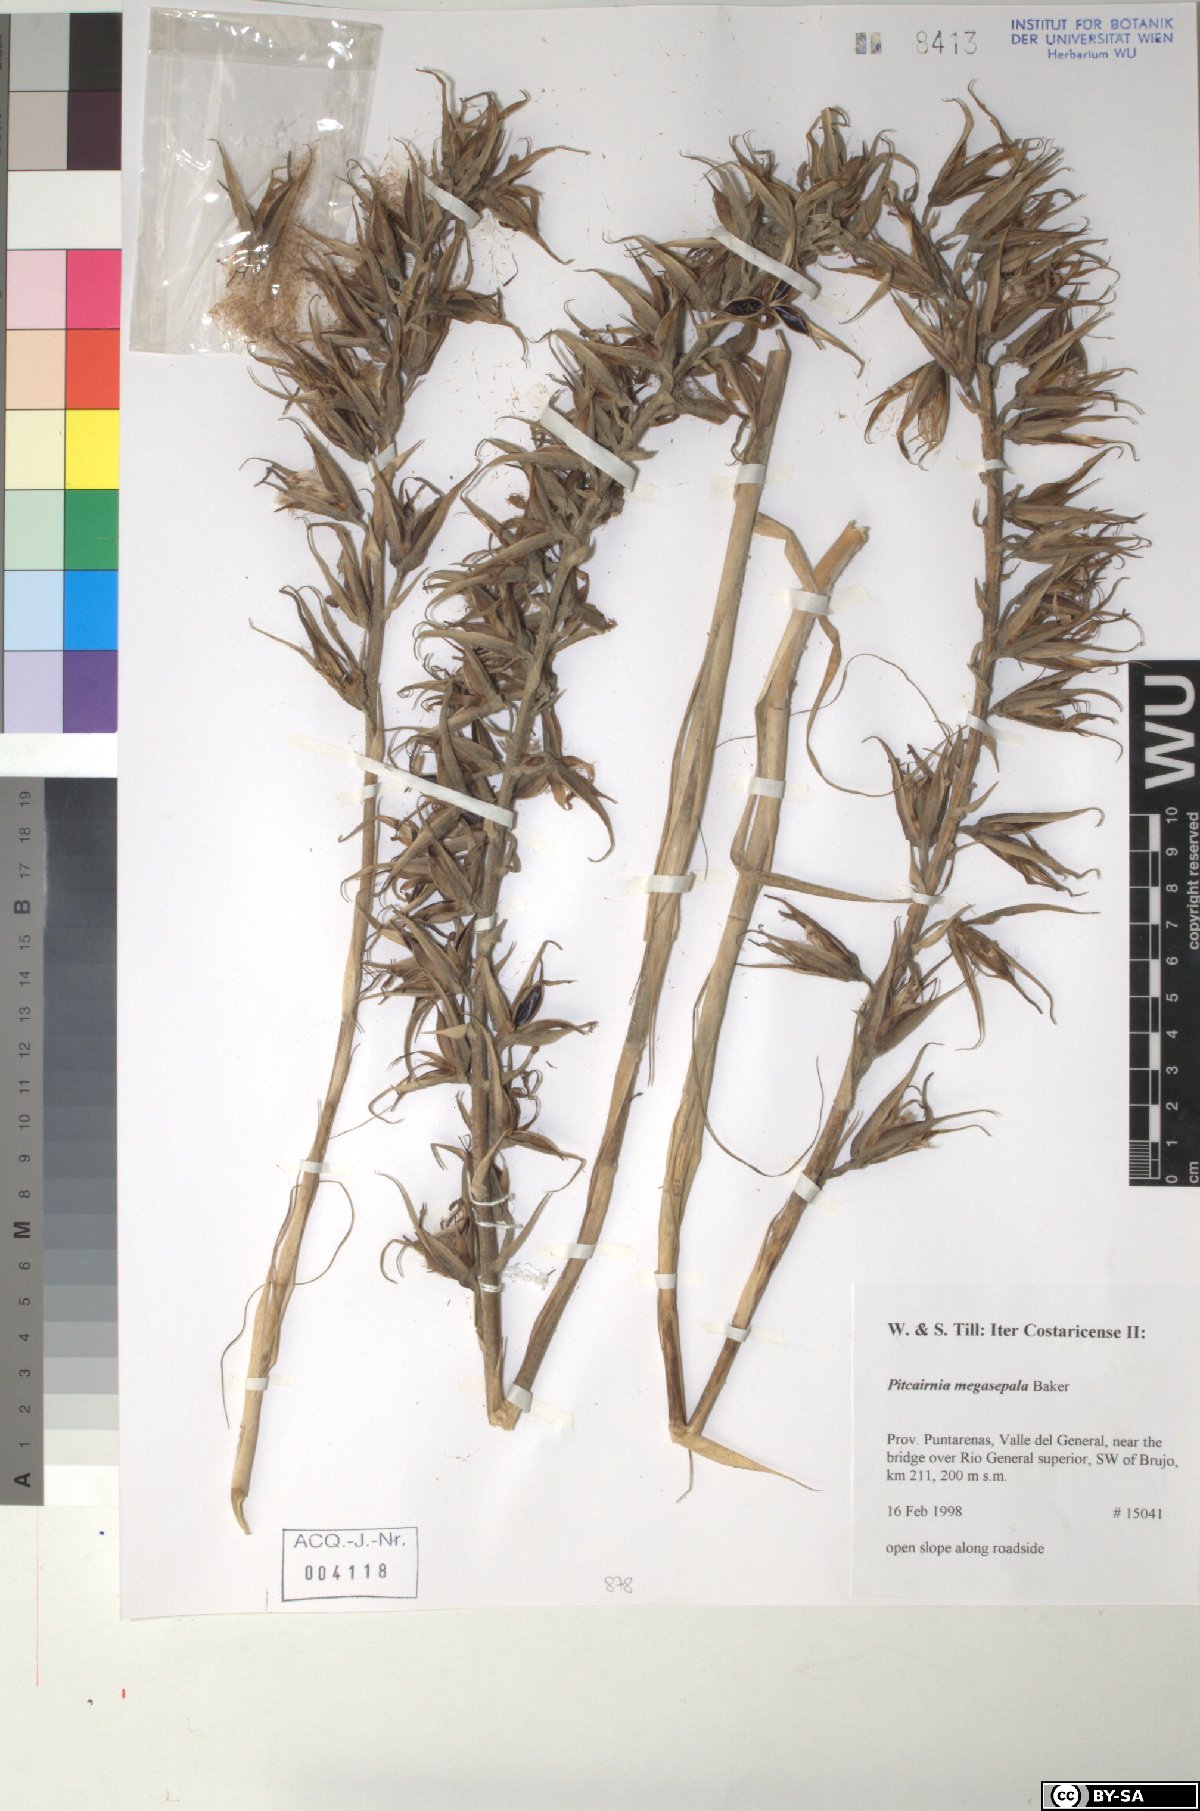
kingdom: Plantae
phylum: Tracheophyta
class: Liliopsida
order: Poales
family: Bromeliaceae
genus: Pitcairnia
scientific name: Pitcairnia megasepala
